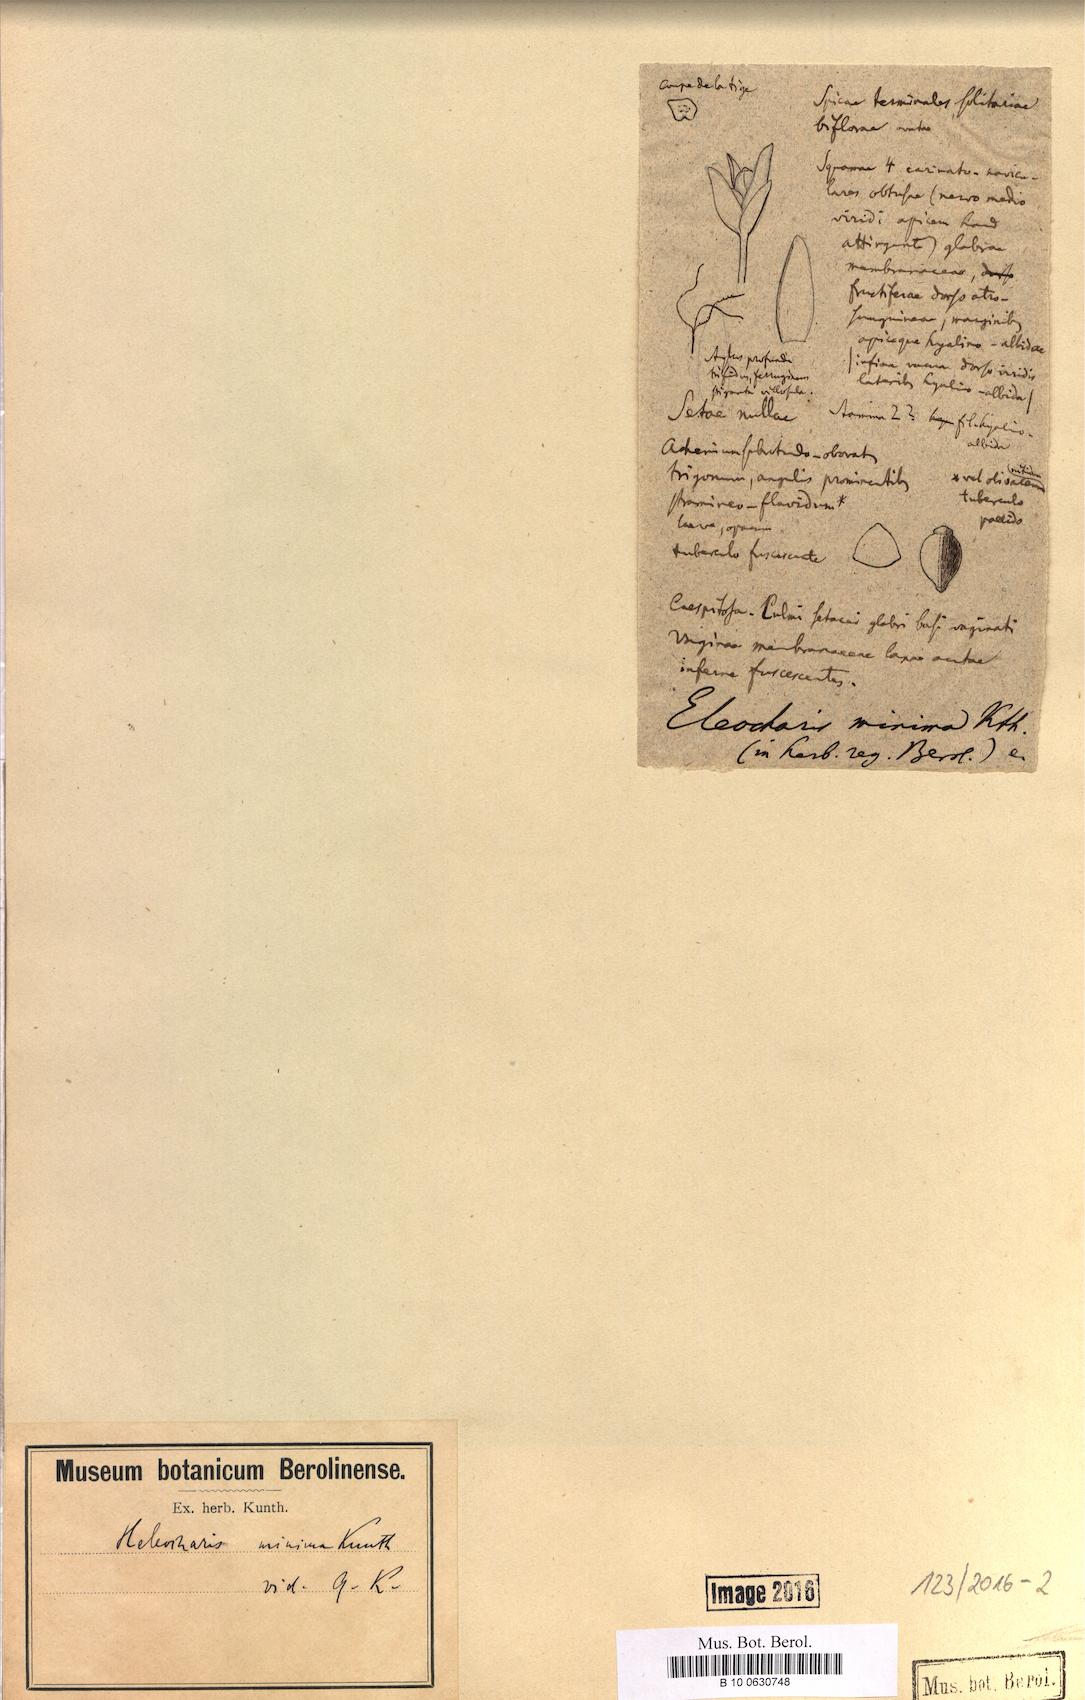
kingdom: Plantae
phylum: Tracheophyta
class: Liliopsida
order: Poales
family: Cyperaceae
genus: Eleocharis
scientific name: Eleocharis minima
